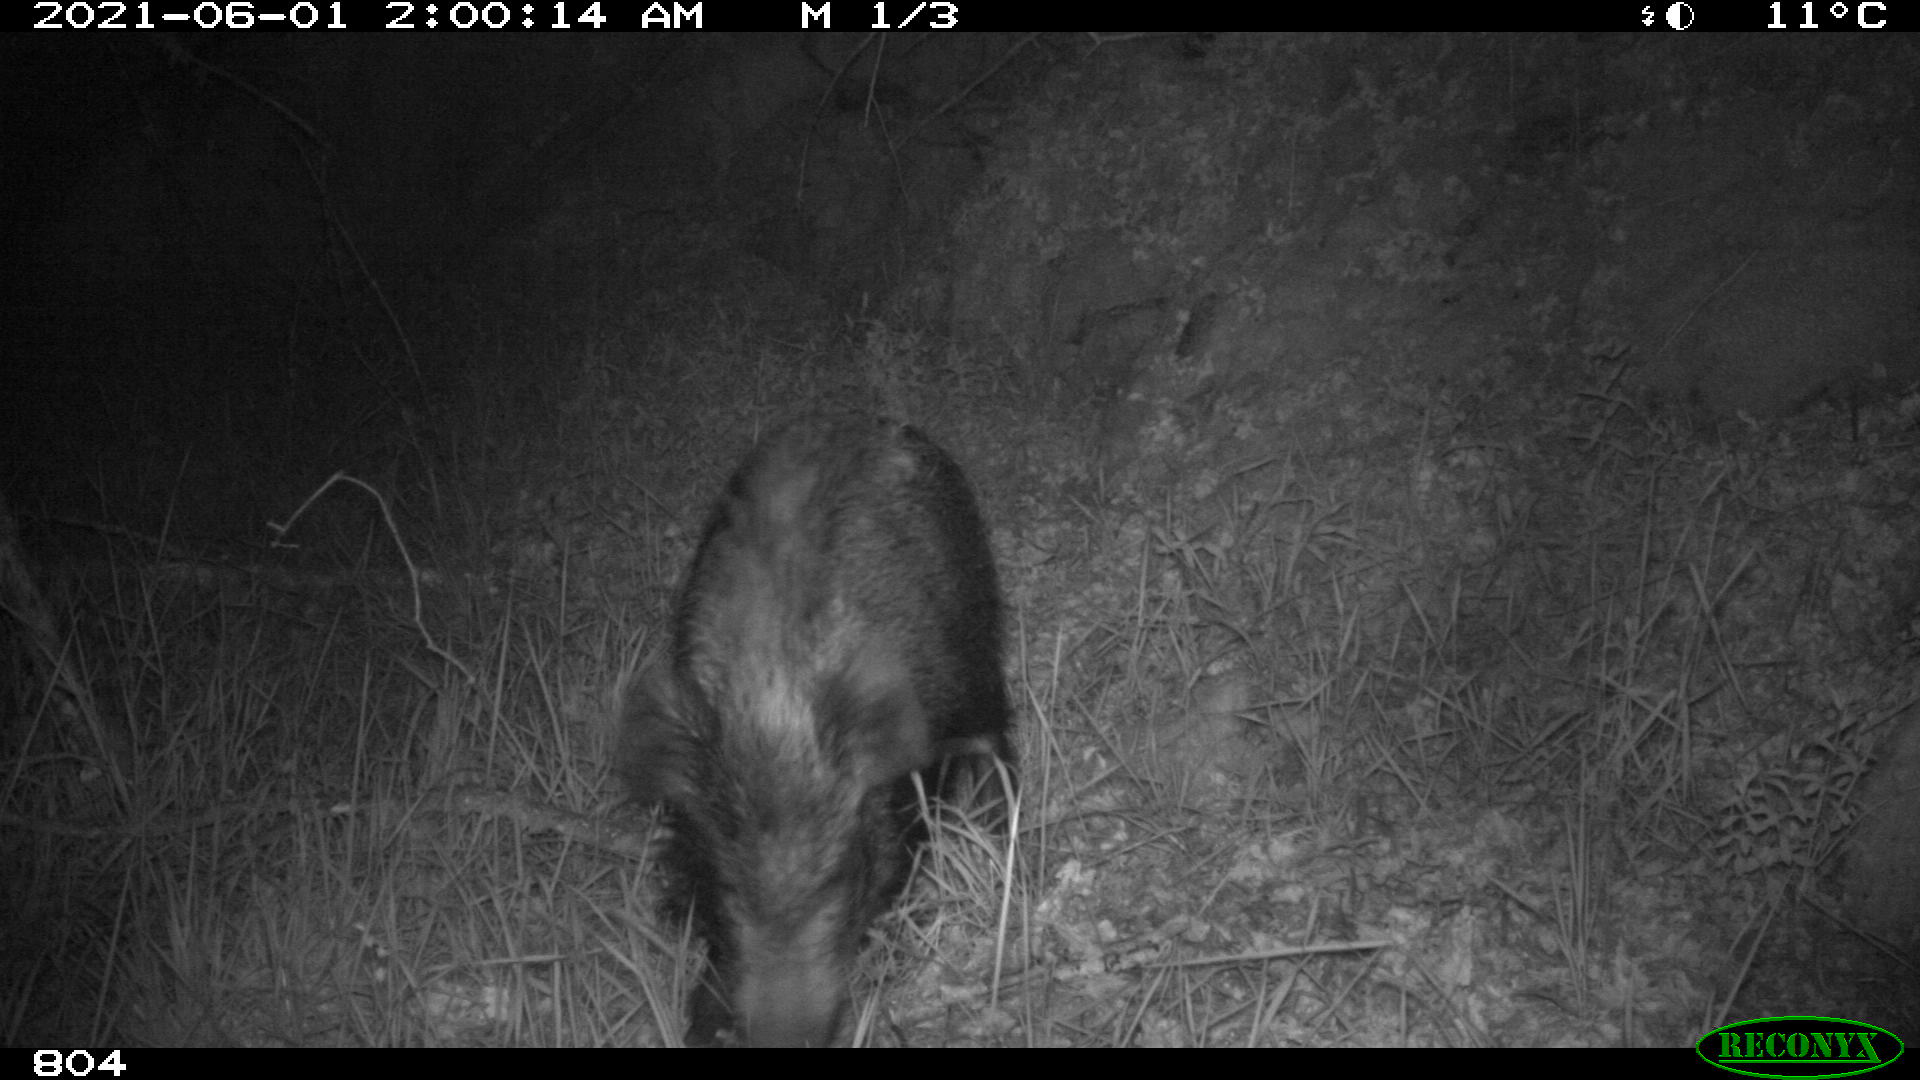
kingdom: Animalia
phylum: Chordata
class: Mammalia
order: Artiodactyla
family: Suidae
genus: Sus
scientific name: Sus scrofa
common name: Wild boar
